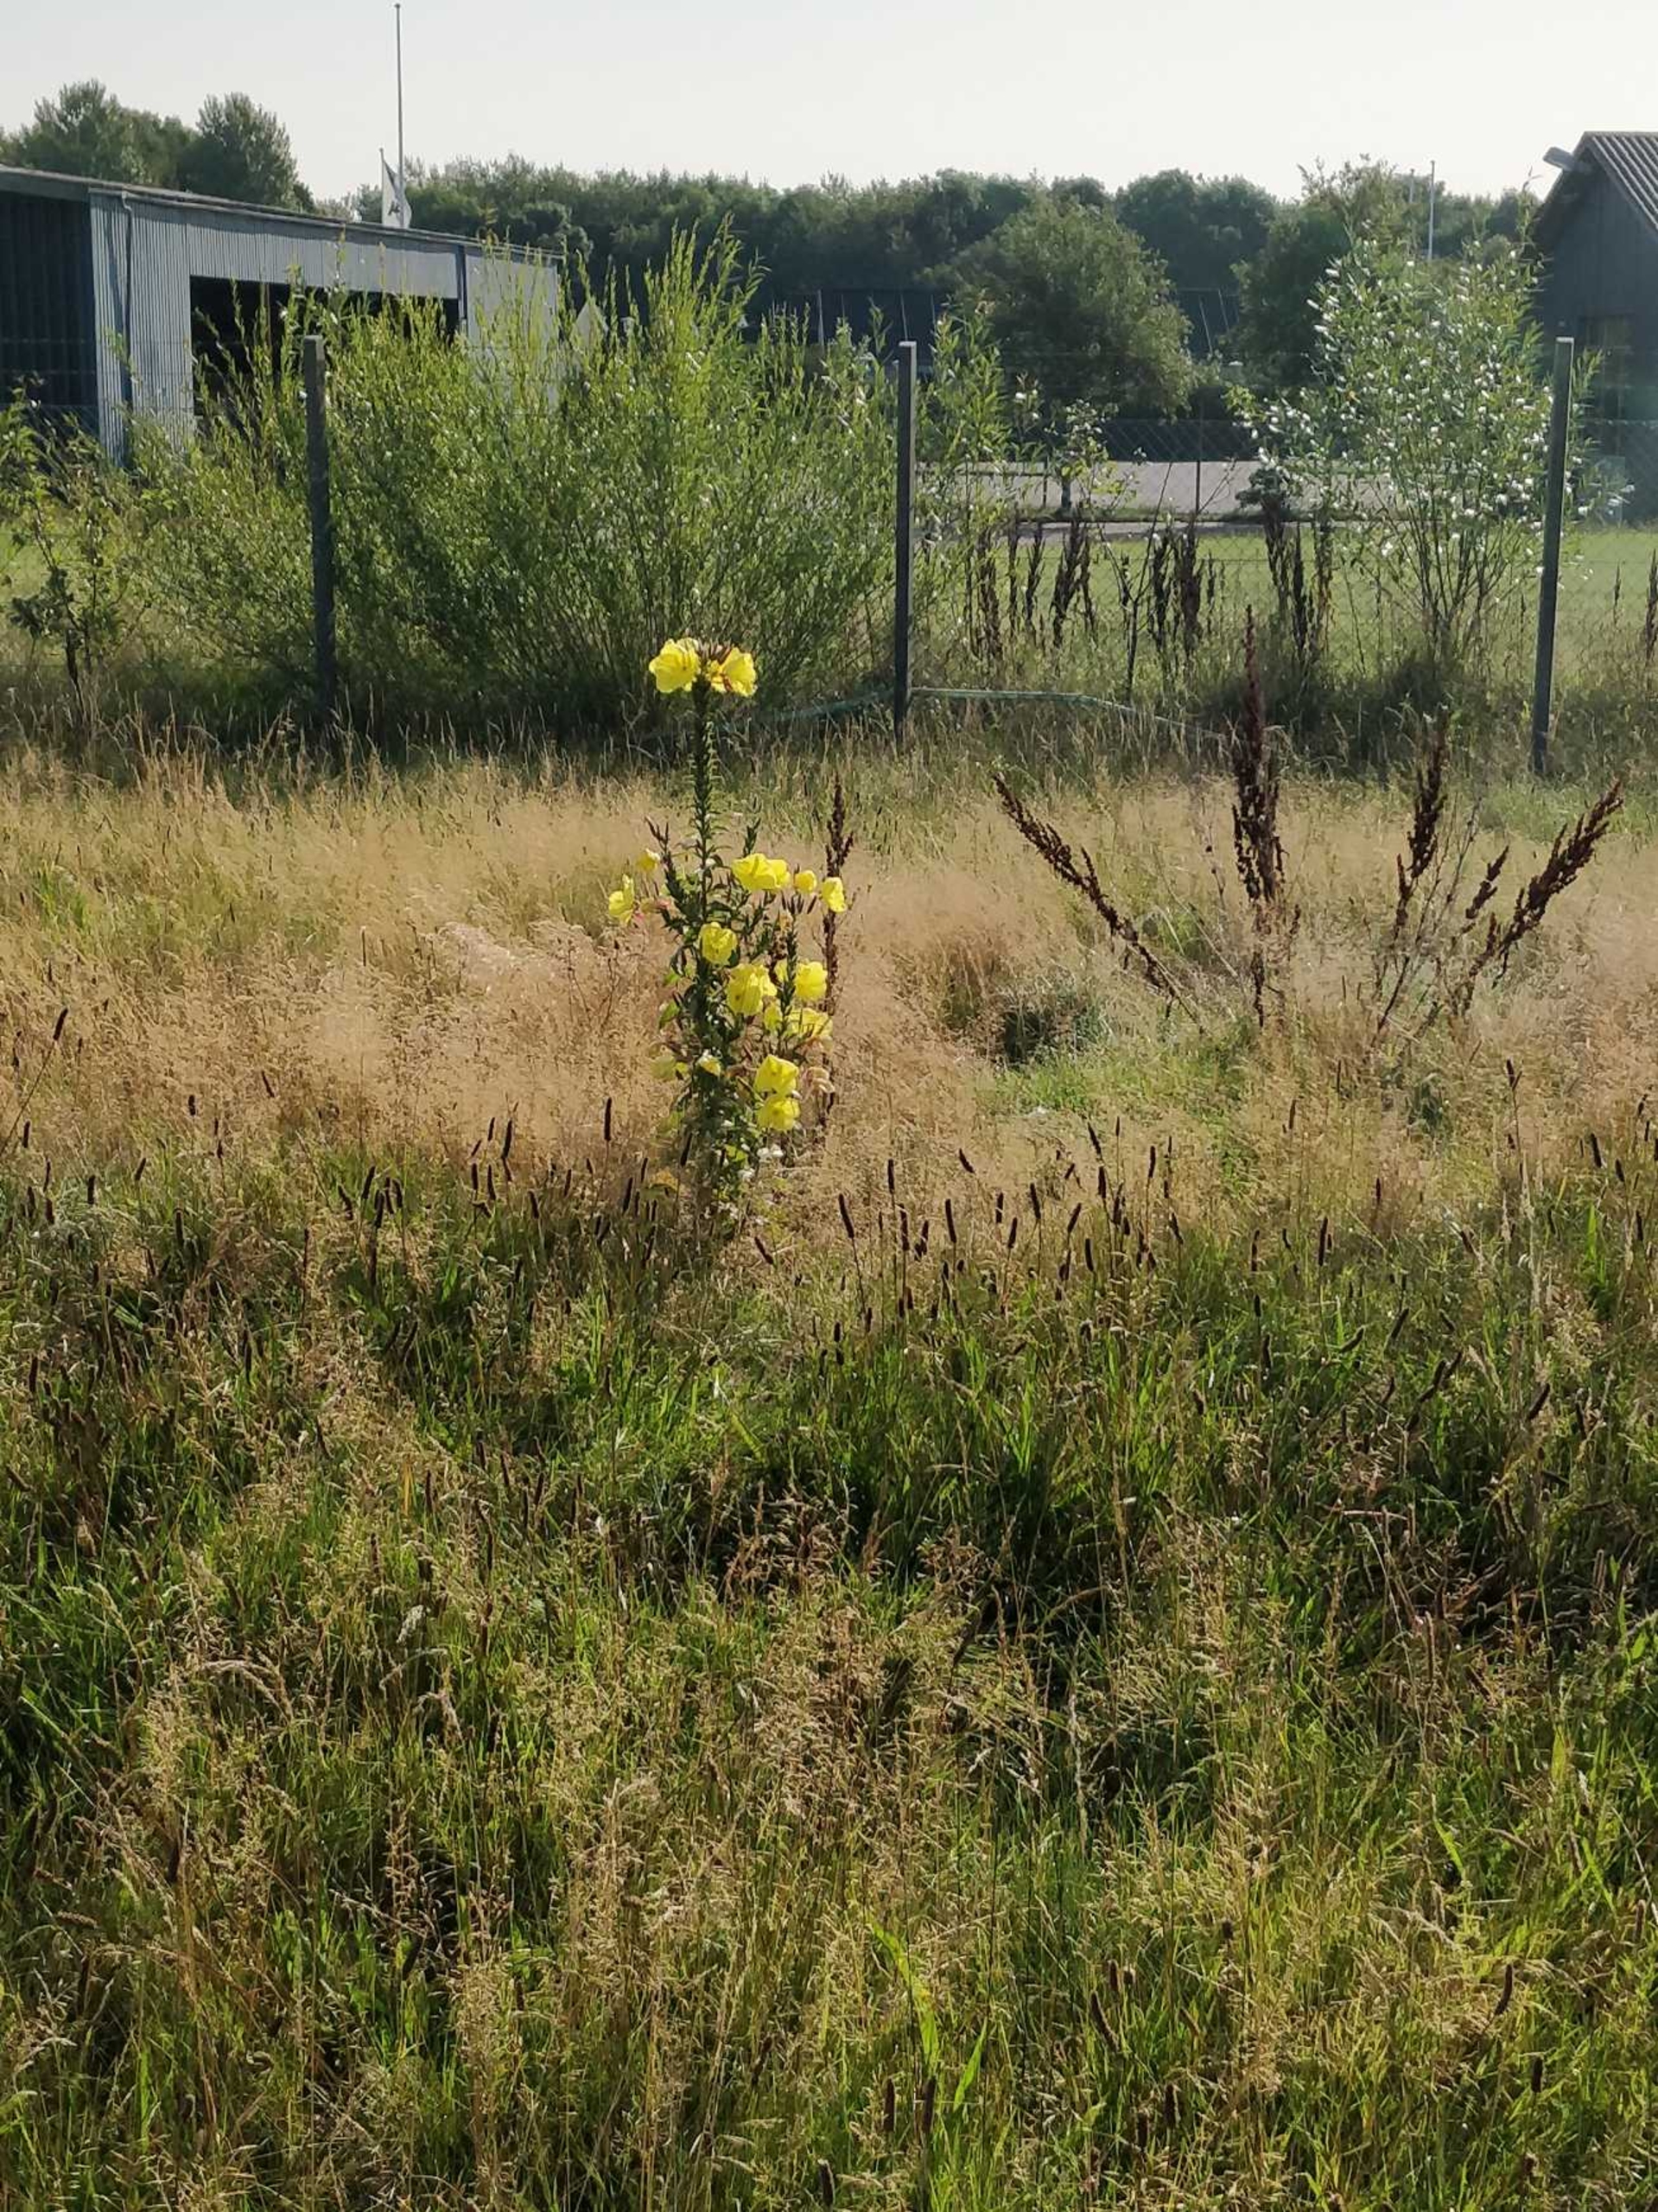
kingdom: Plantae
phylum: Tracheophyta
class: Magnoliopsida
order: Myrtales
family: Onagraceae
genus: Oenothera
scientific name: Oenothera glazioviana
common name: Kæmpe-natlys
